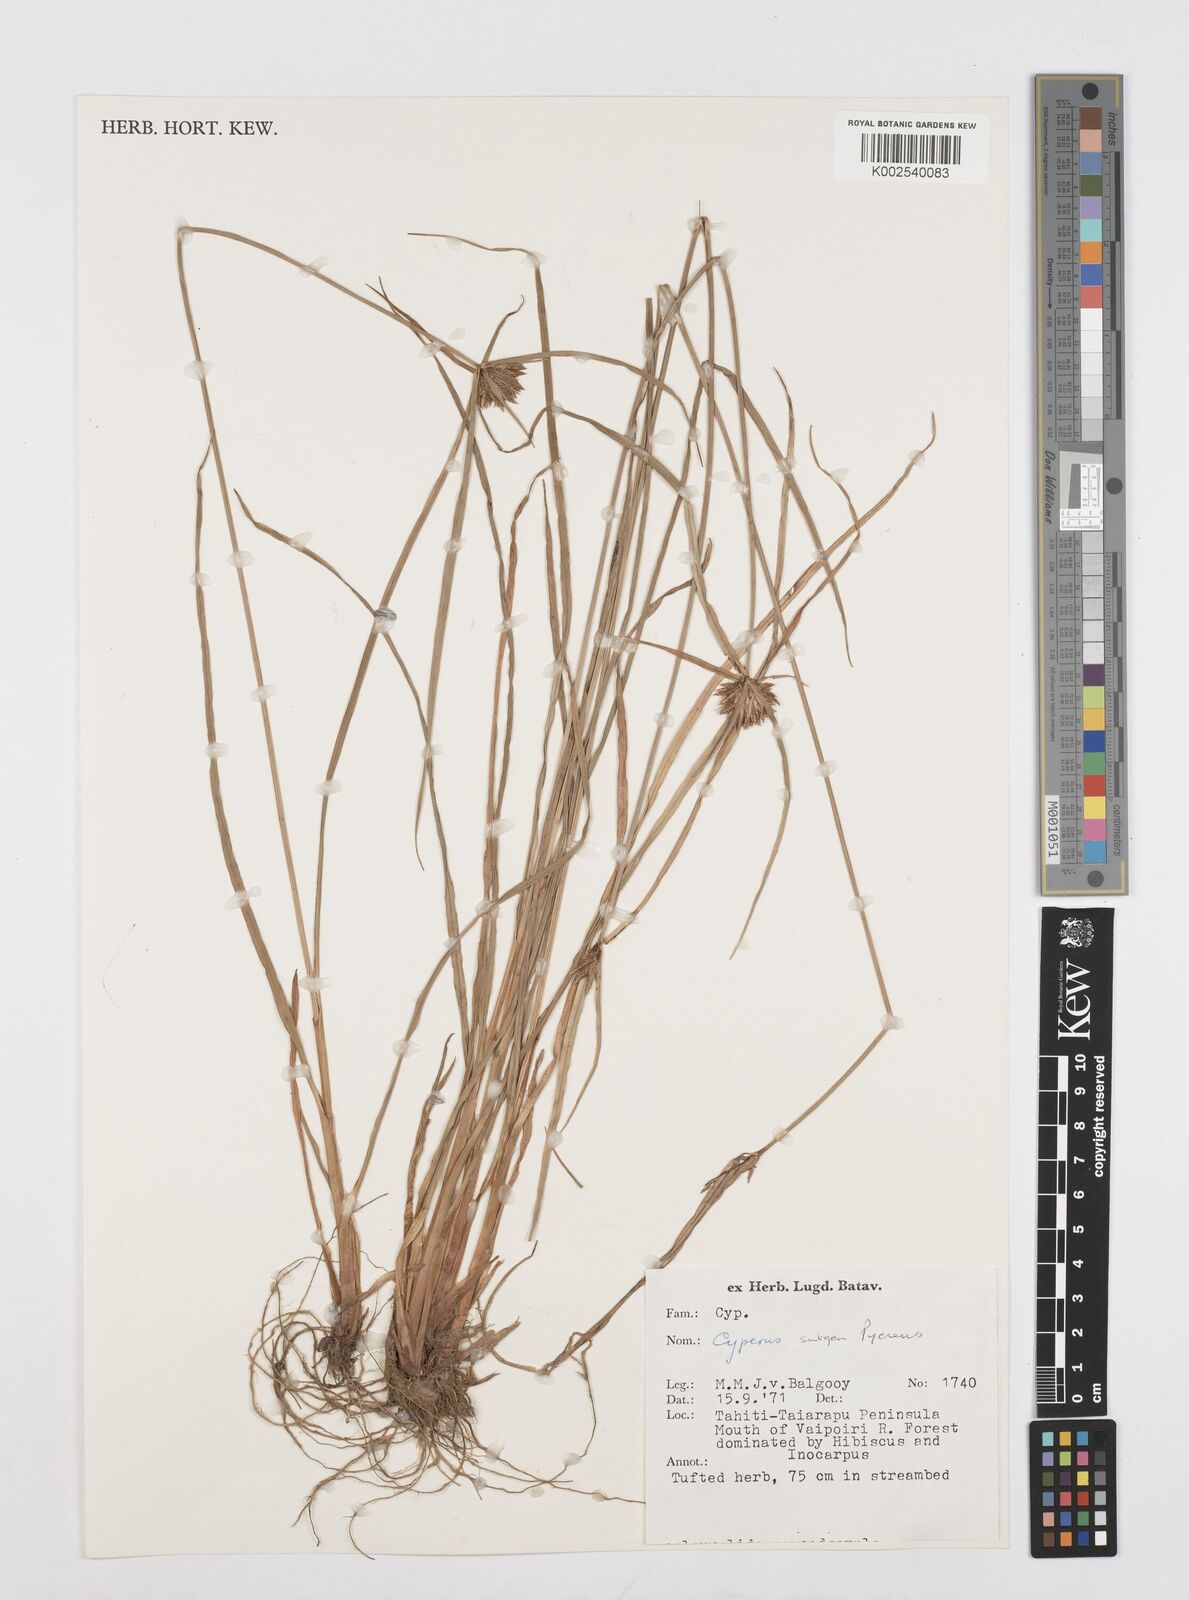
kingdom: Plantae
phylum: Tracheophyta
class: Liliopsida
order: Poales
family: Cyperaceae
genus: Cyperus
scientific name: Cyperus
